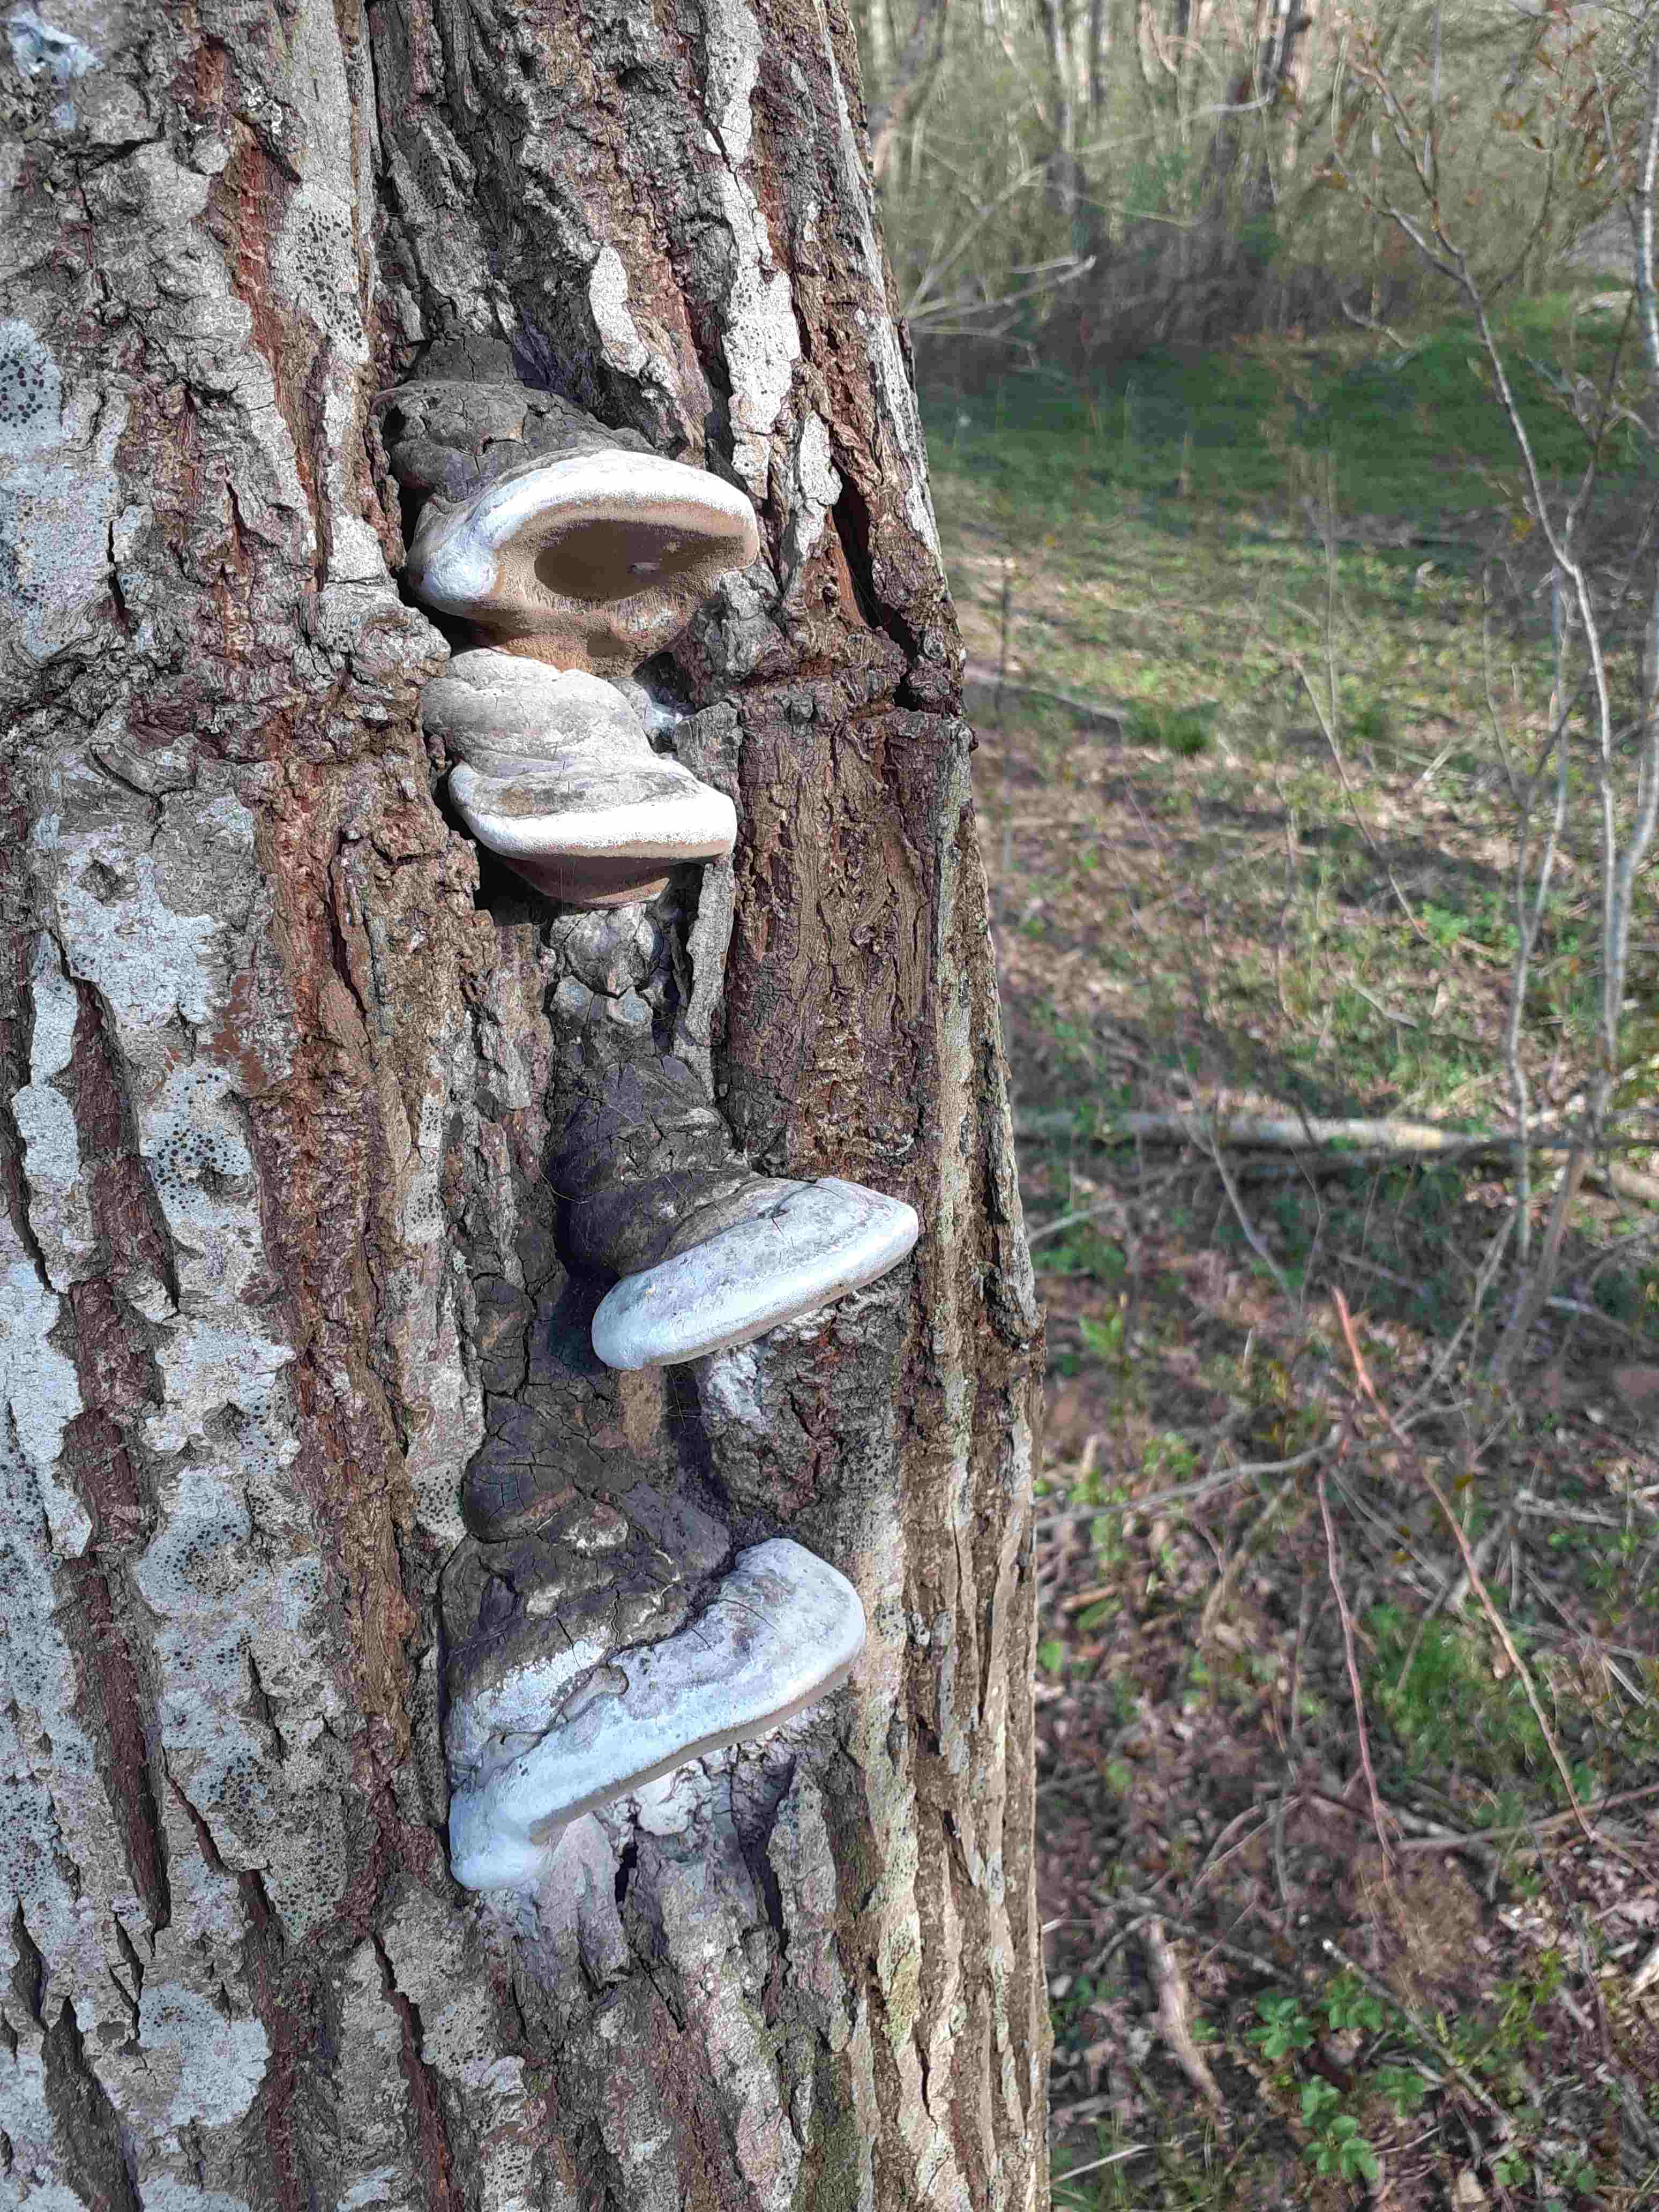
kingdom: Fungi
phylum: Basidiomycota
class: Agaricomycetes
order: Hymenochaetales
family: Hymenochaetaceae
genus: Phellinus
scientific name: Phellinus igniarius
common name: almindelig ildporesvamp
